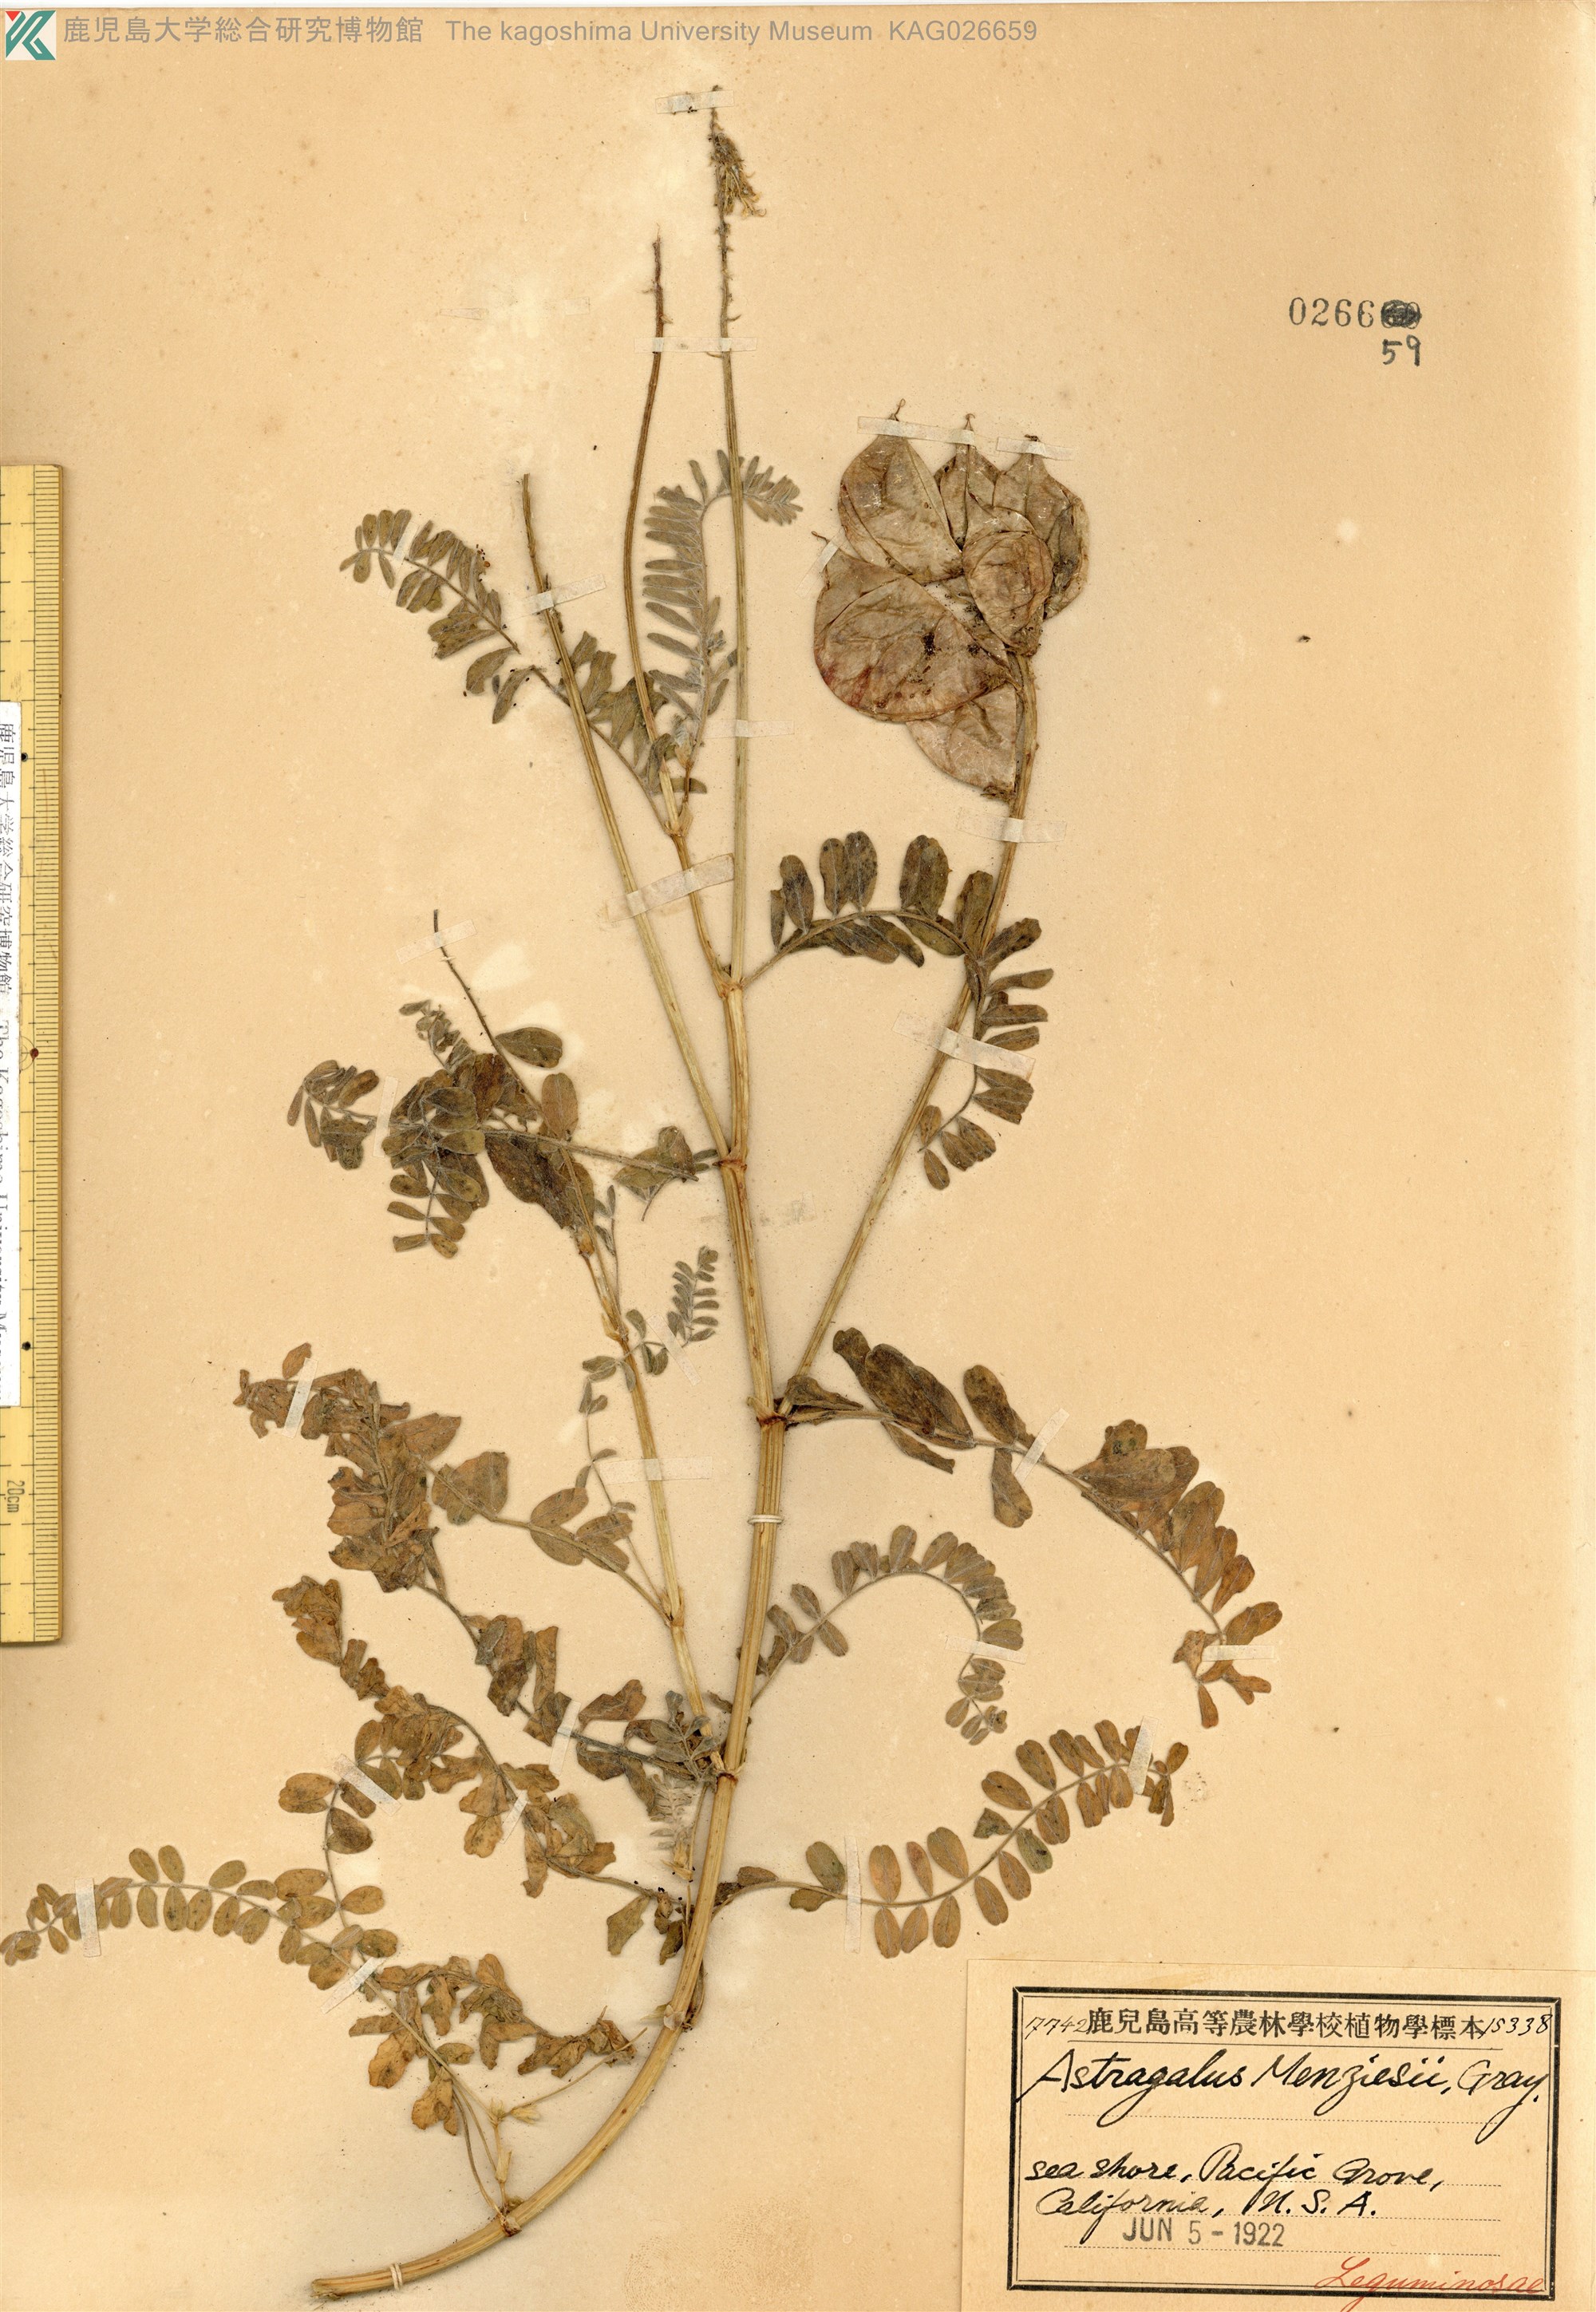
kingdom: Plantae
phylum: Tracheophyta
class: Magnoliopsida
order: Fabales
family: Fabaceae
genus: Astragalus
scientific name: Astragalus nuttallii
